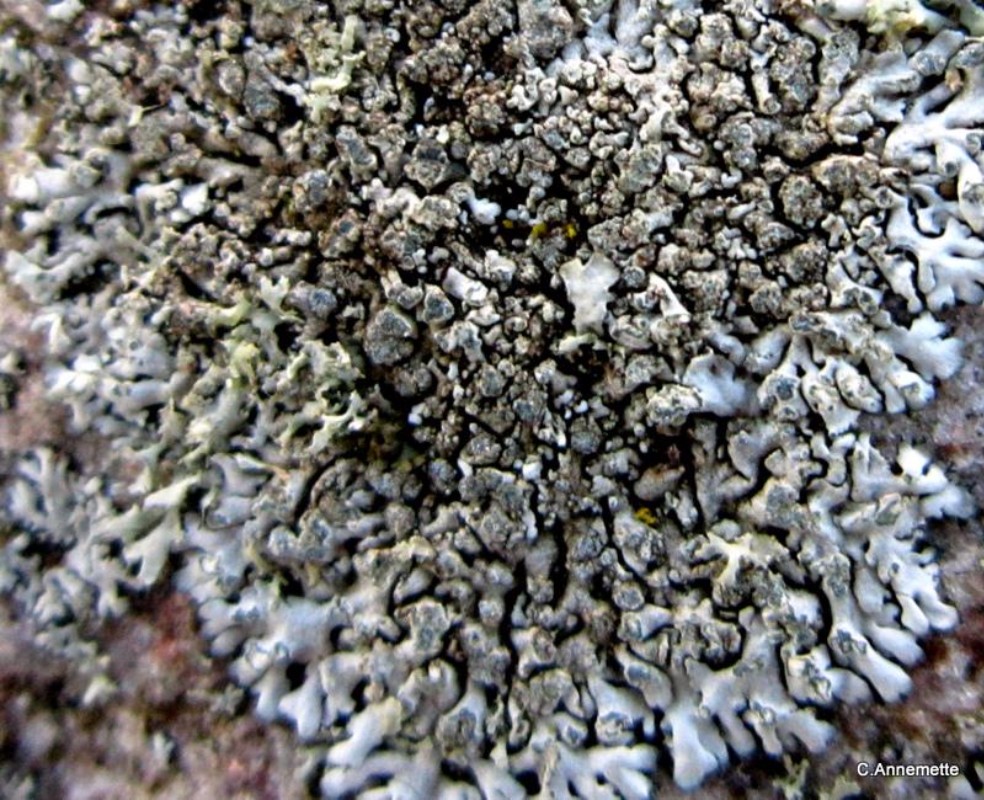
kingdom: Fungi
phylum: Ascomycota
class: Lecanoromycetes
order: Caliciales
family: Physciaceae
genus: Physcia
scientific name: Physcia caesia
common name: blågrå rosetlav
